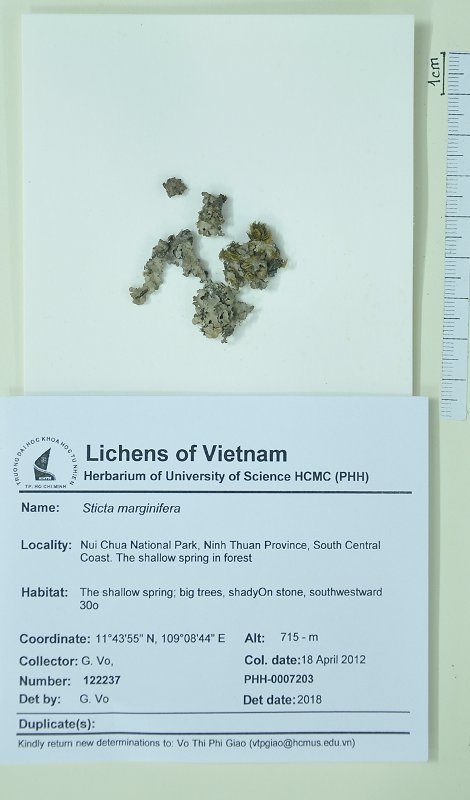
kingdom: Fungi
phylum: Ascomycota
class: Lecanoromycetes
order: Peltigerales
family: Lobariaceae
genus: Sticta
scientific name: Sticta marginifera
